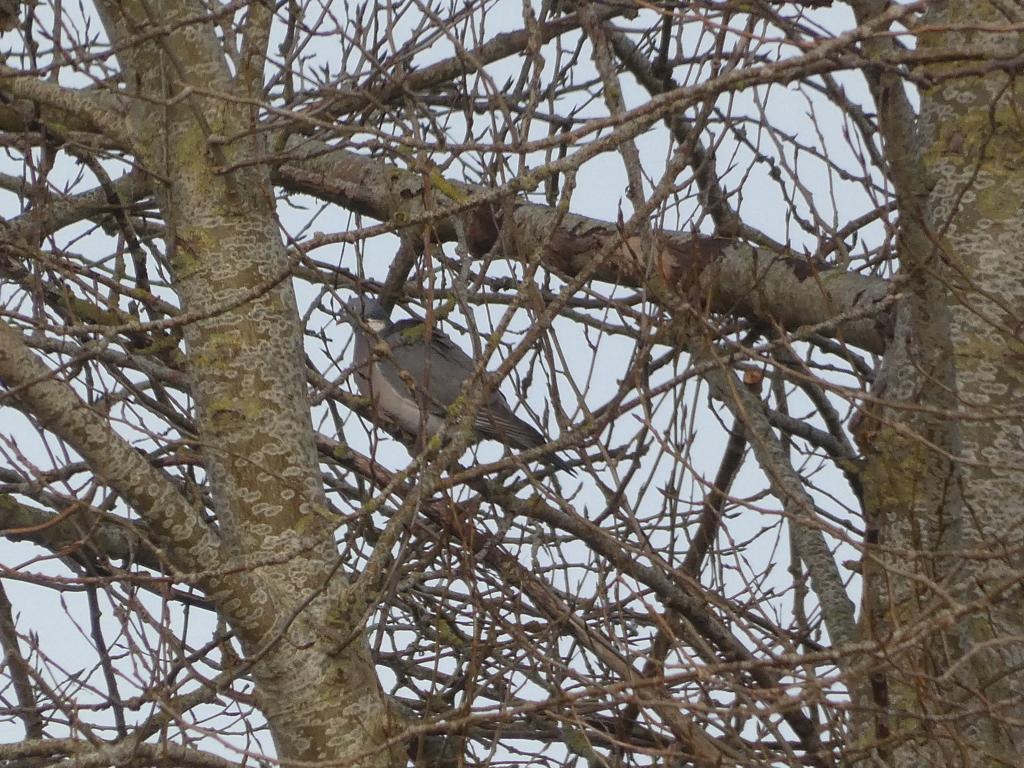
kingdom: Animalia
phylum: Chordata
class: Aves
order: Columbiformes
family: Columbidae
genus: Columba
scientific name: Columba palumbus
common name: Ringdue
